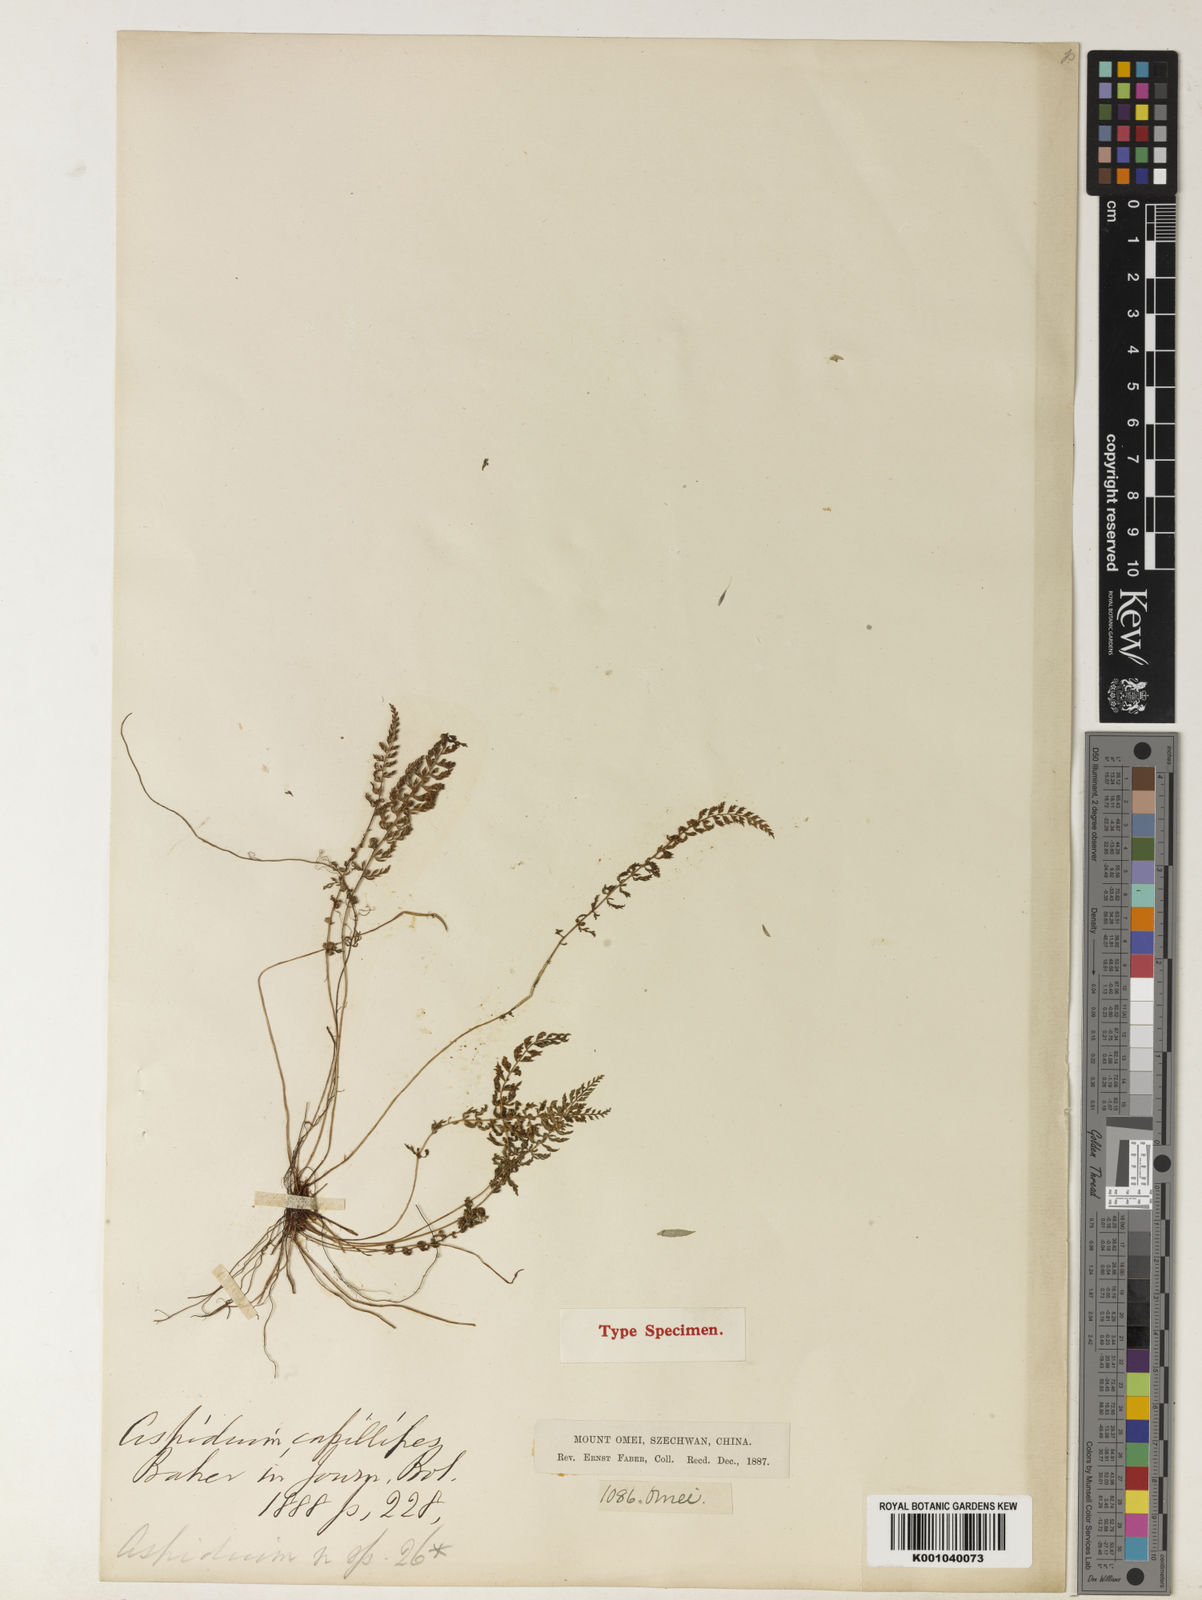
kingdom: Plantae
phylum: Tracheophyta
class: Polypodiopsida
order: Polypodiales
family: Dryopteridaceae
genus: Polystichum
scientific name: Polystichum thomsonii
